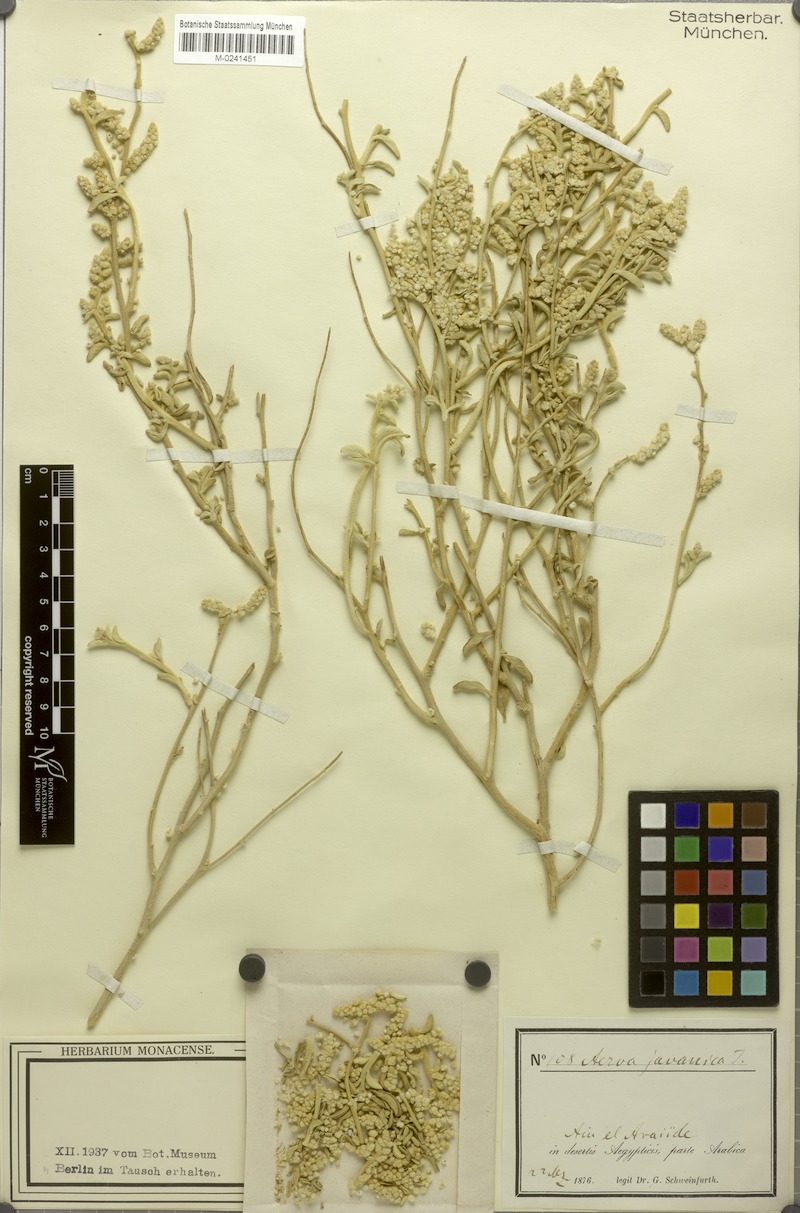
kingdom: Plantae
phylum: Tracheophyta
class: Magnoliopsida
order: Caryophyllales
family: Amaranthaceae
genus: Aerva
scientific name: Aerva javanica
